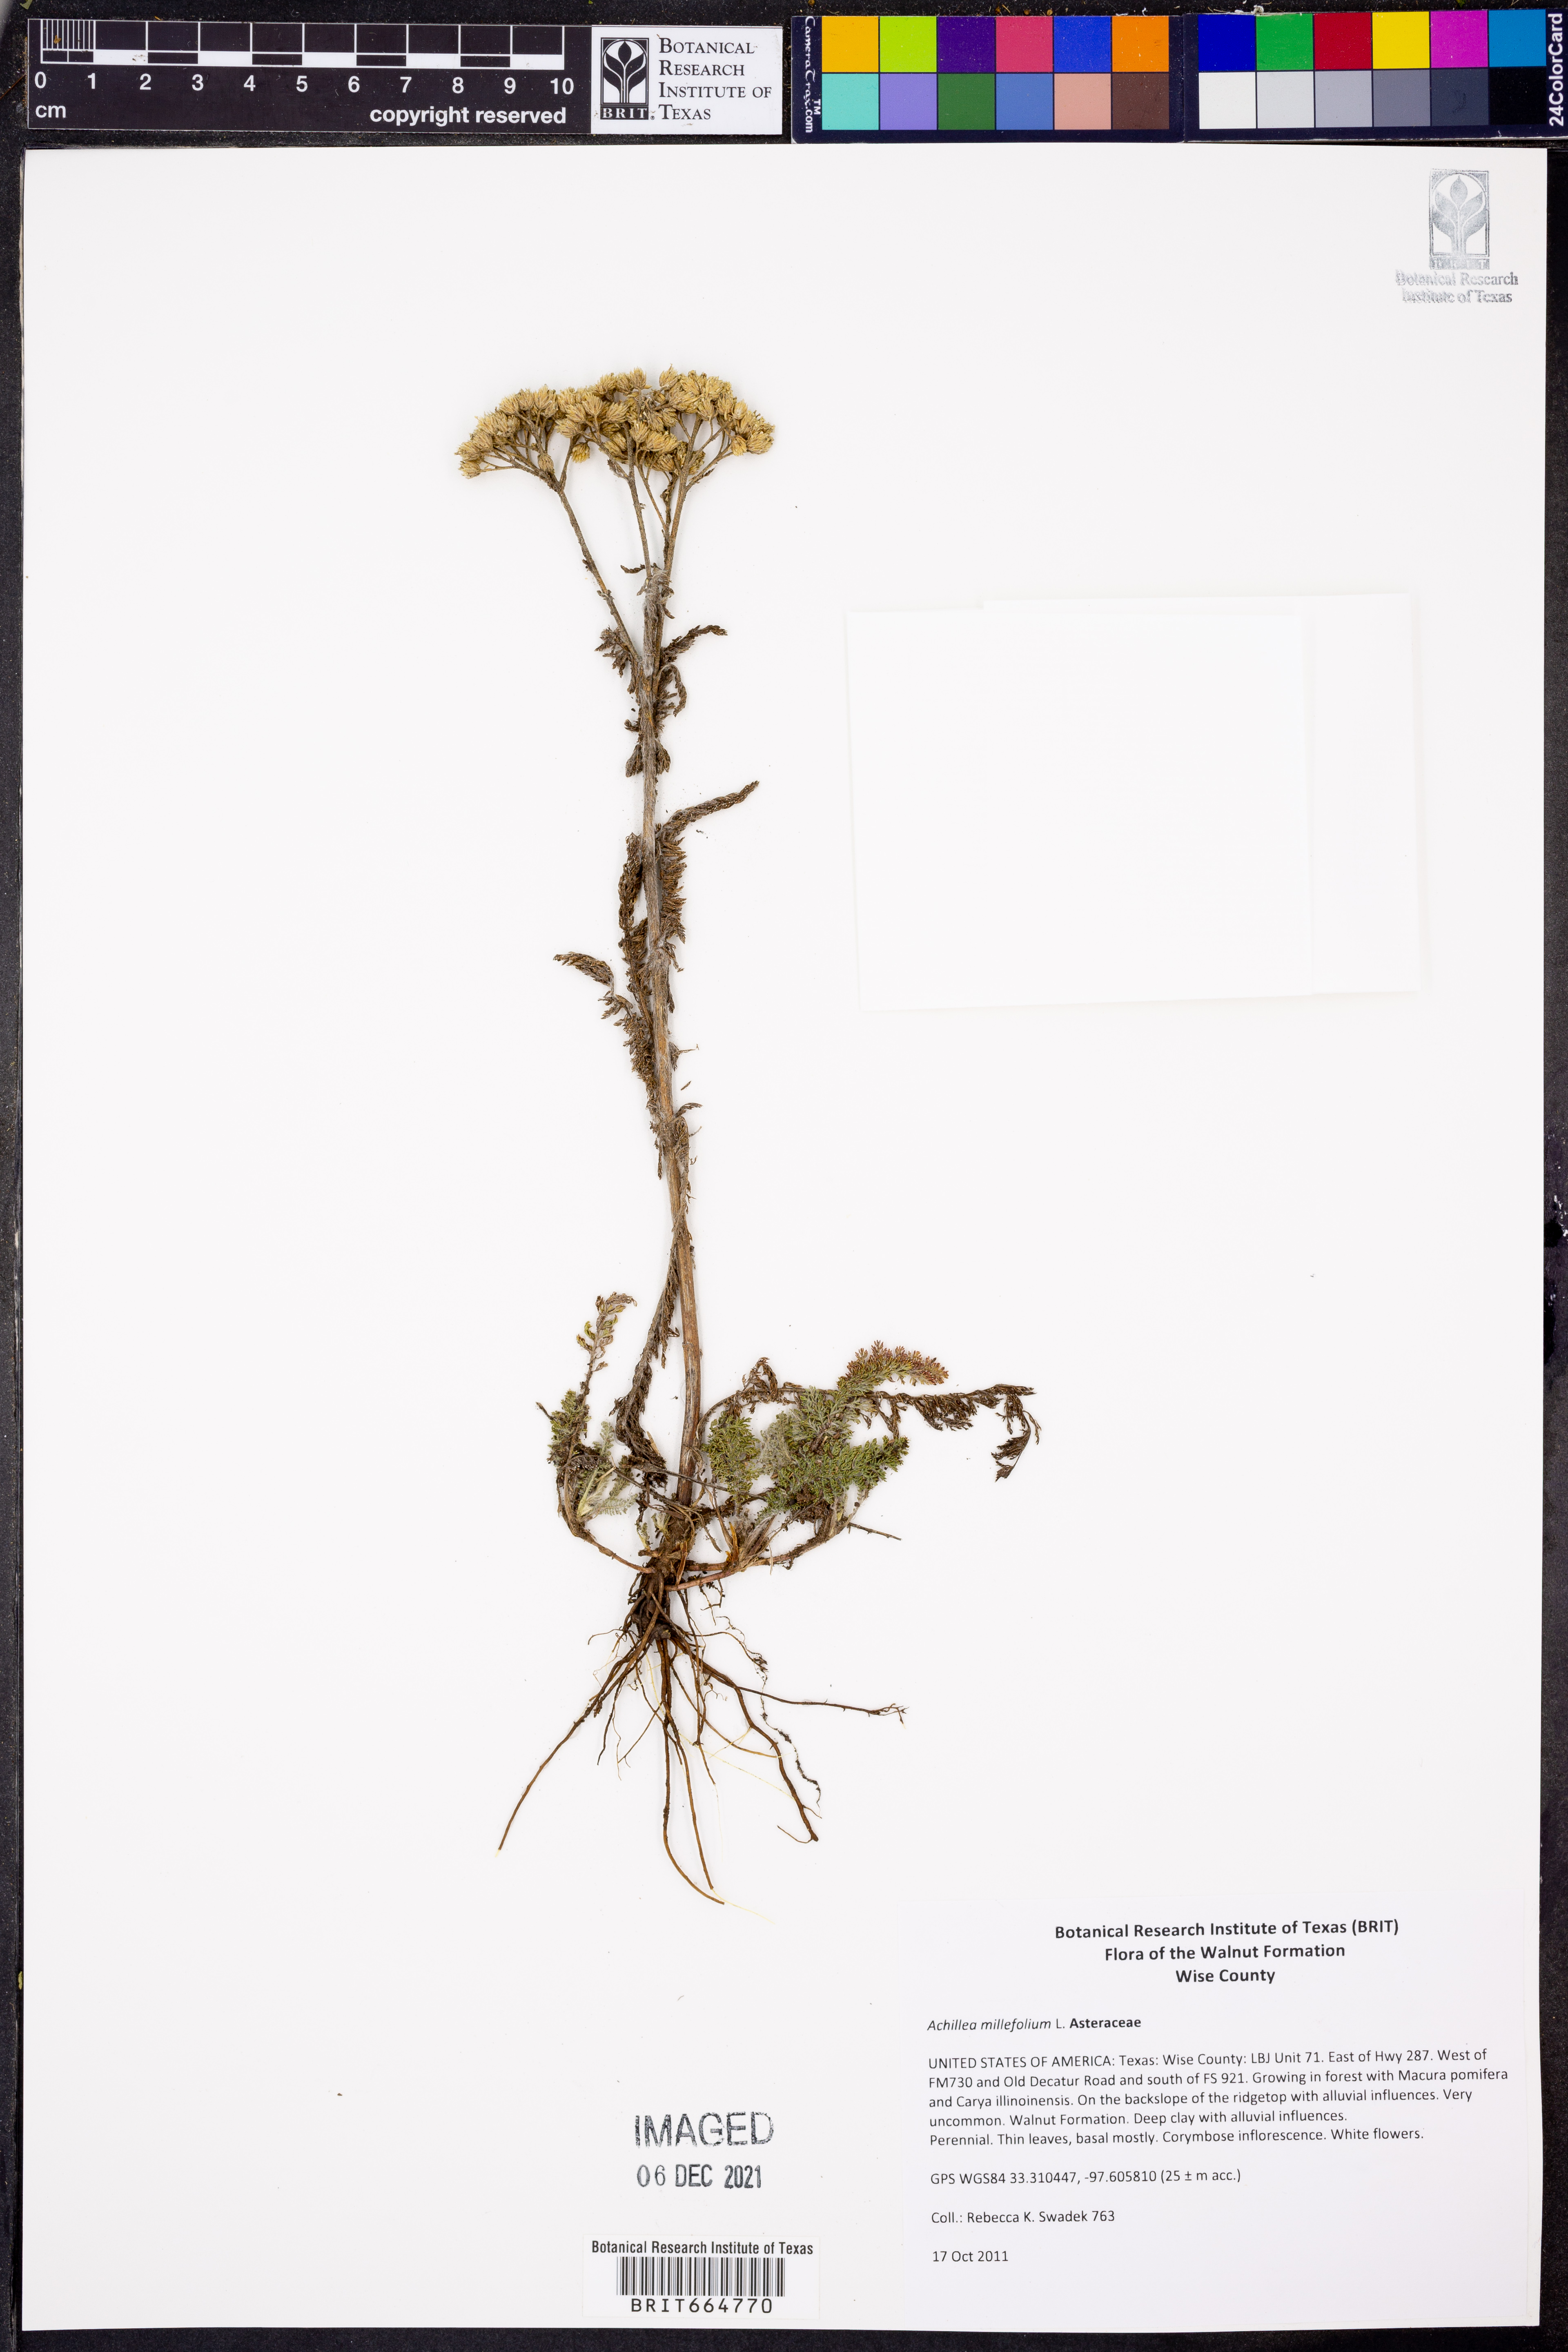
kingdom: Plantae
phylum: Tracheophyta
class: Magnoliopsida
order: Asterales
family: Asteraceae
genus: Achillea
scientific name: Achillea millefolium
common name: Yarrow
